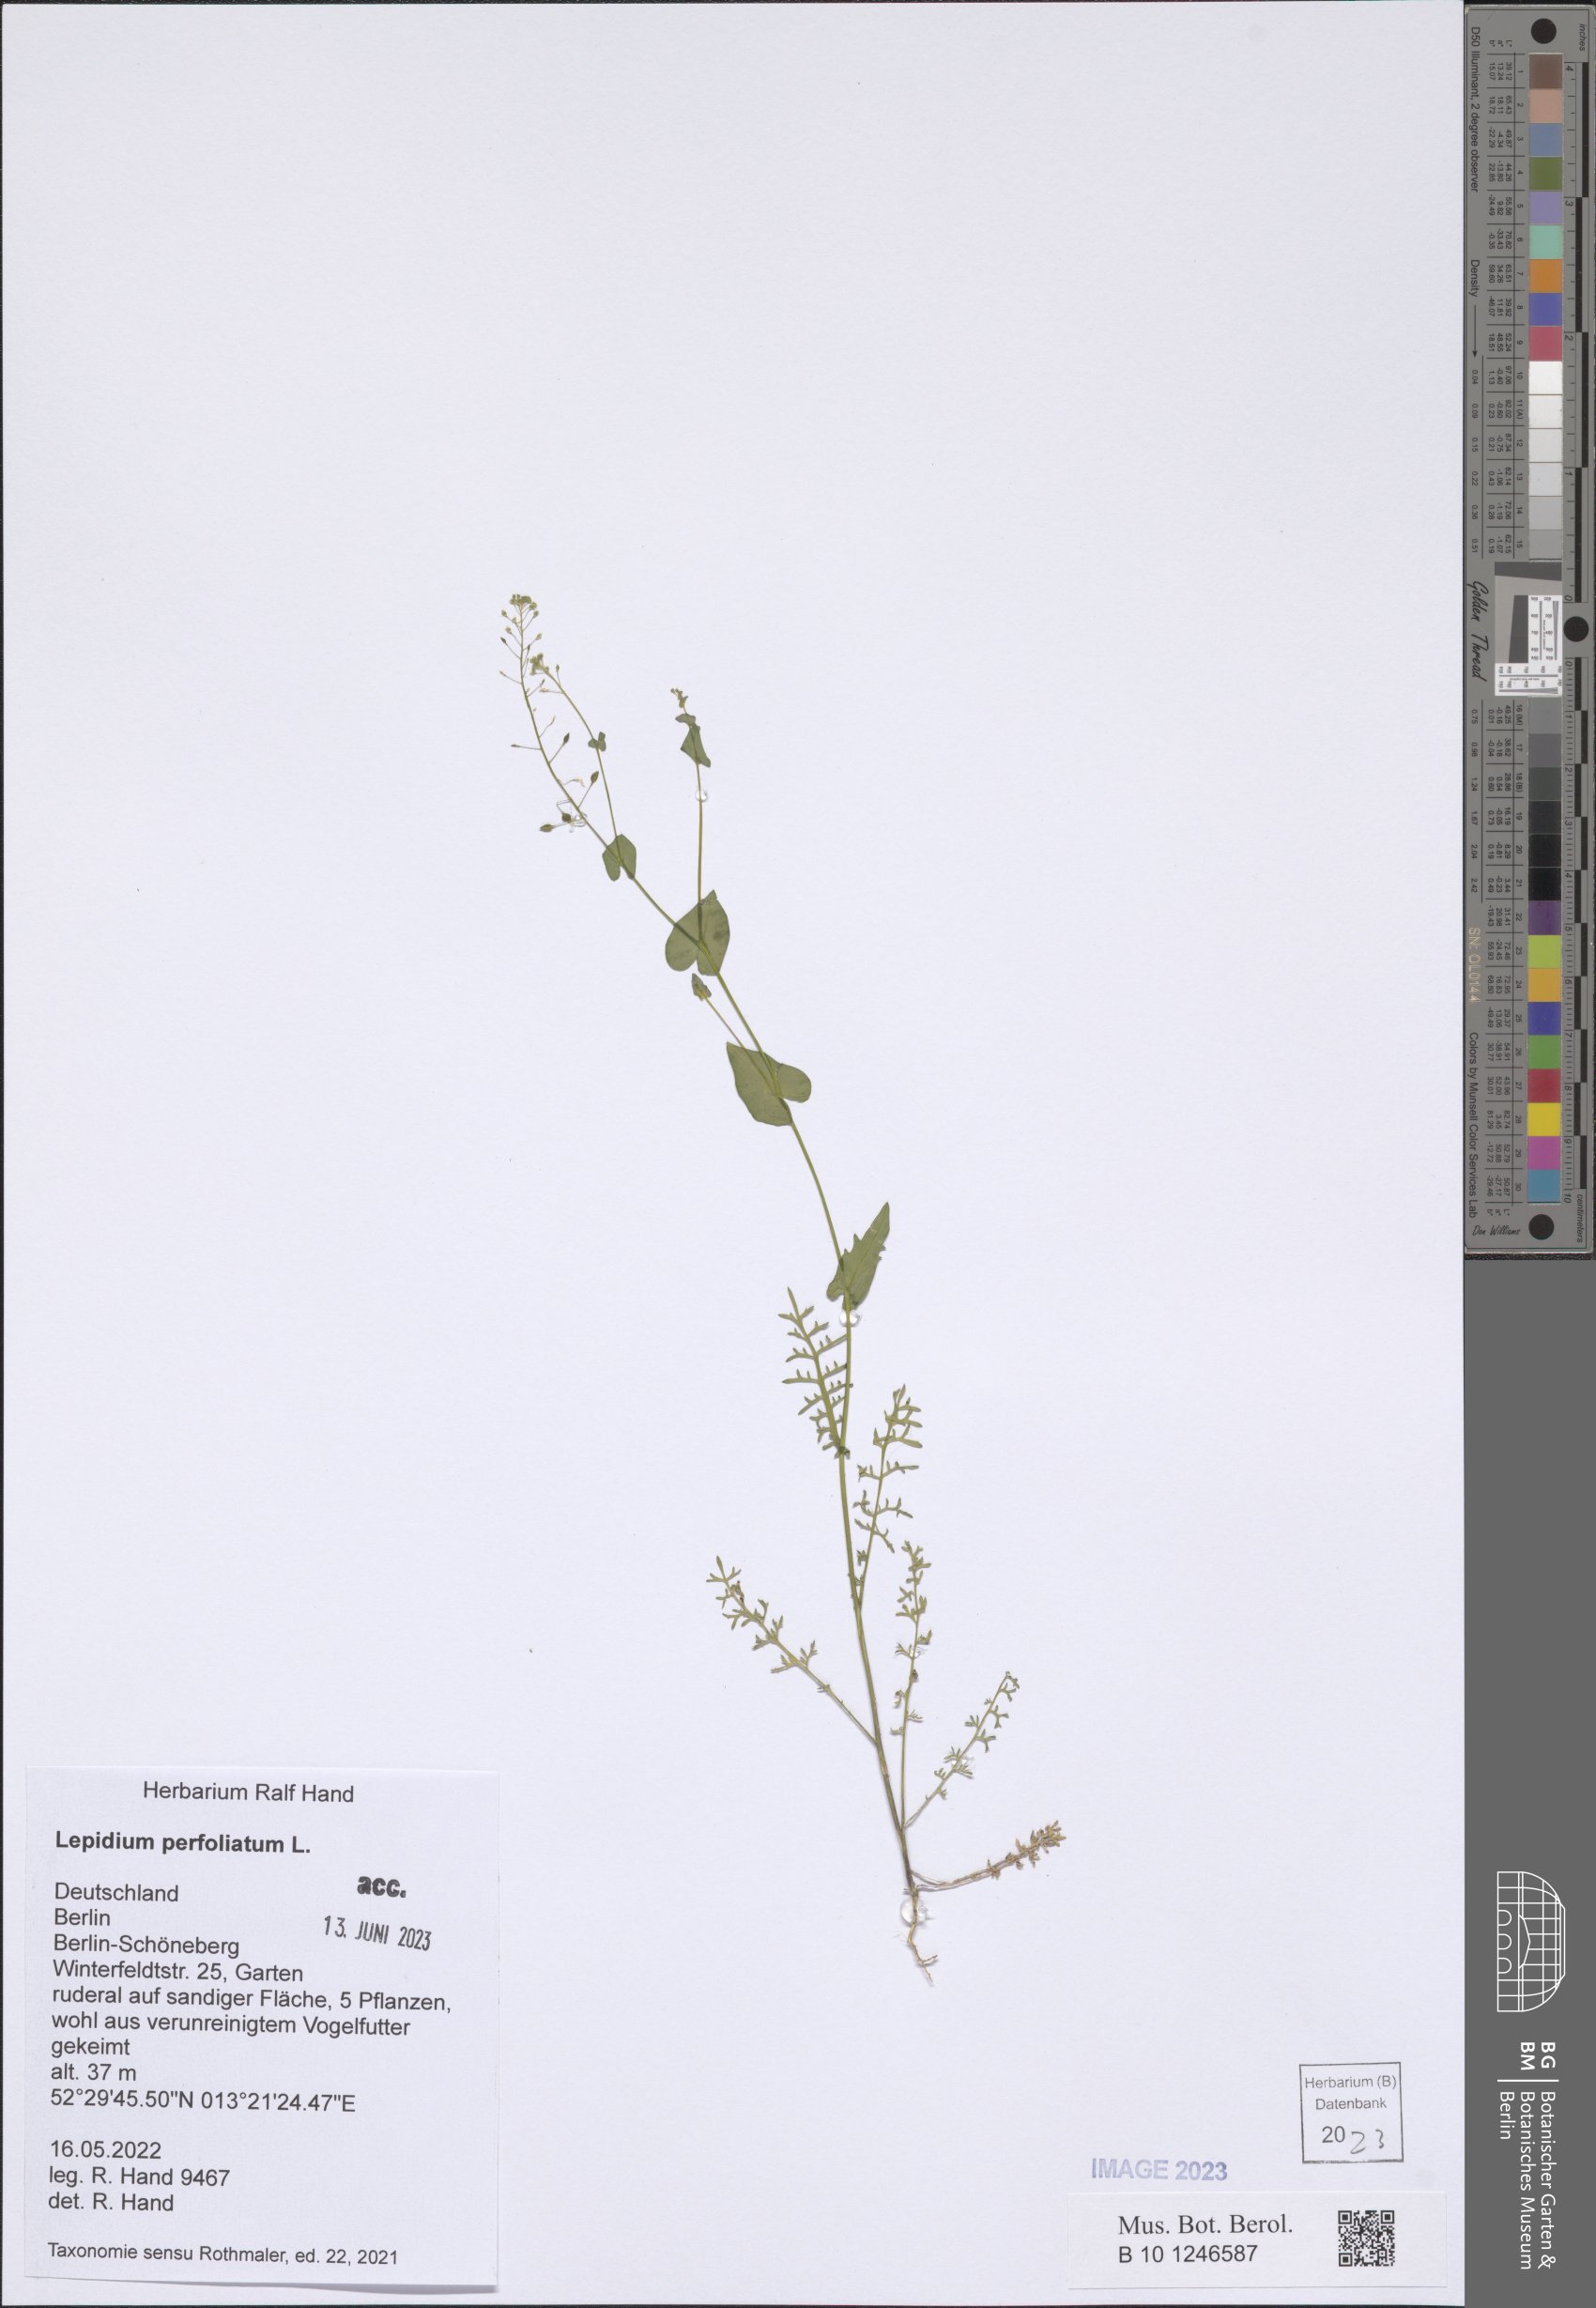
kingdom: Plantae
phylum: Tracheophyta
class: Magnoliopsida
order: Brassicales
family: Brassicaceae
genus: Lepidium
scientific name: Lepidium perfoliatum
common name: Perfoliate pepperwort
